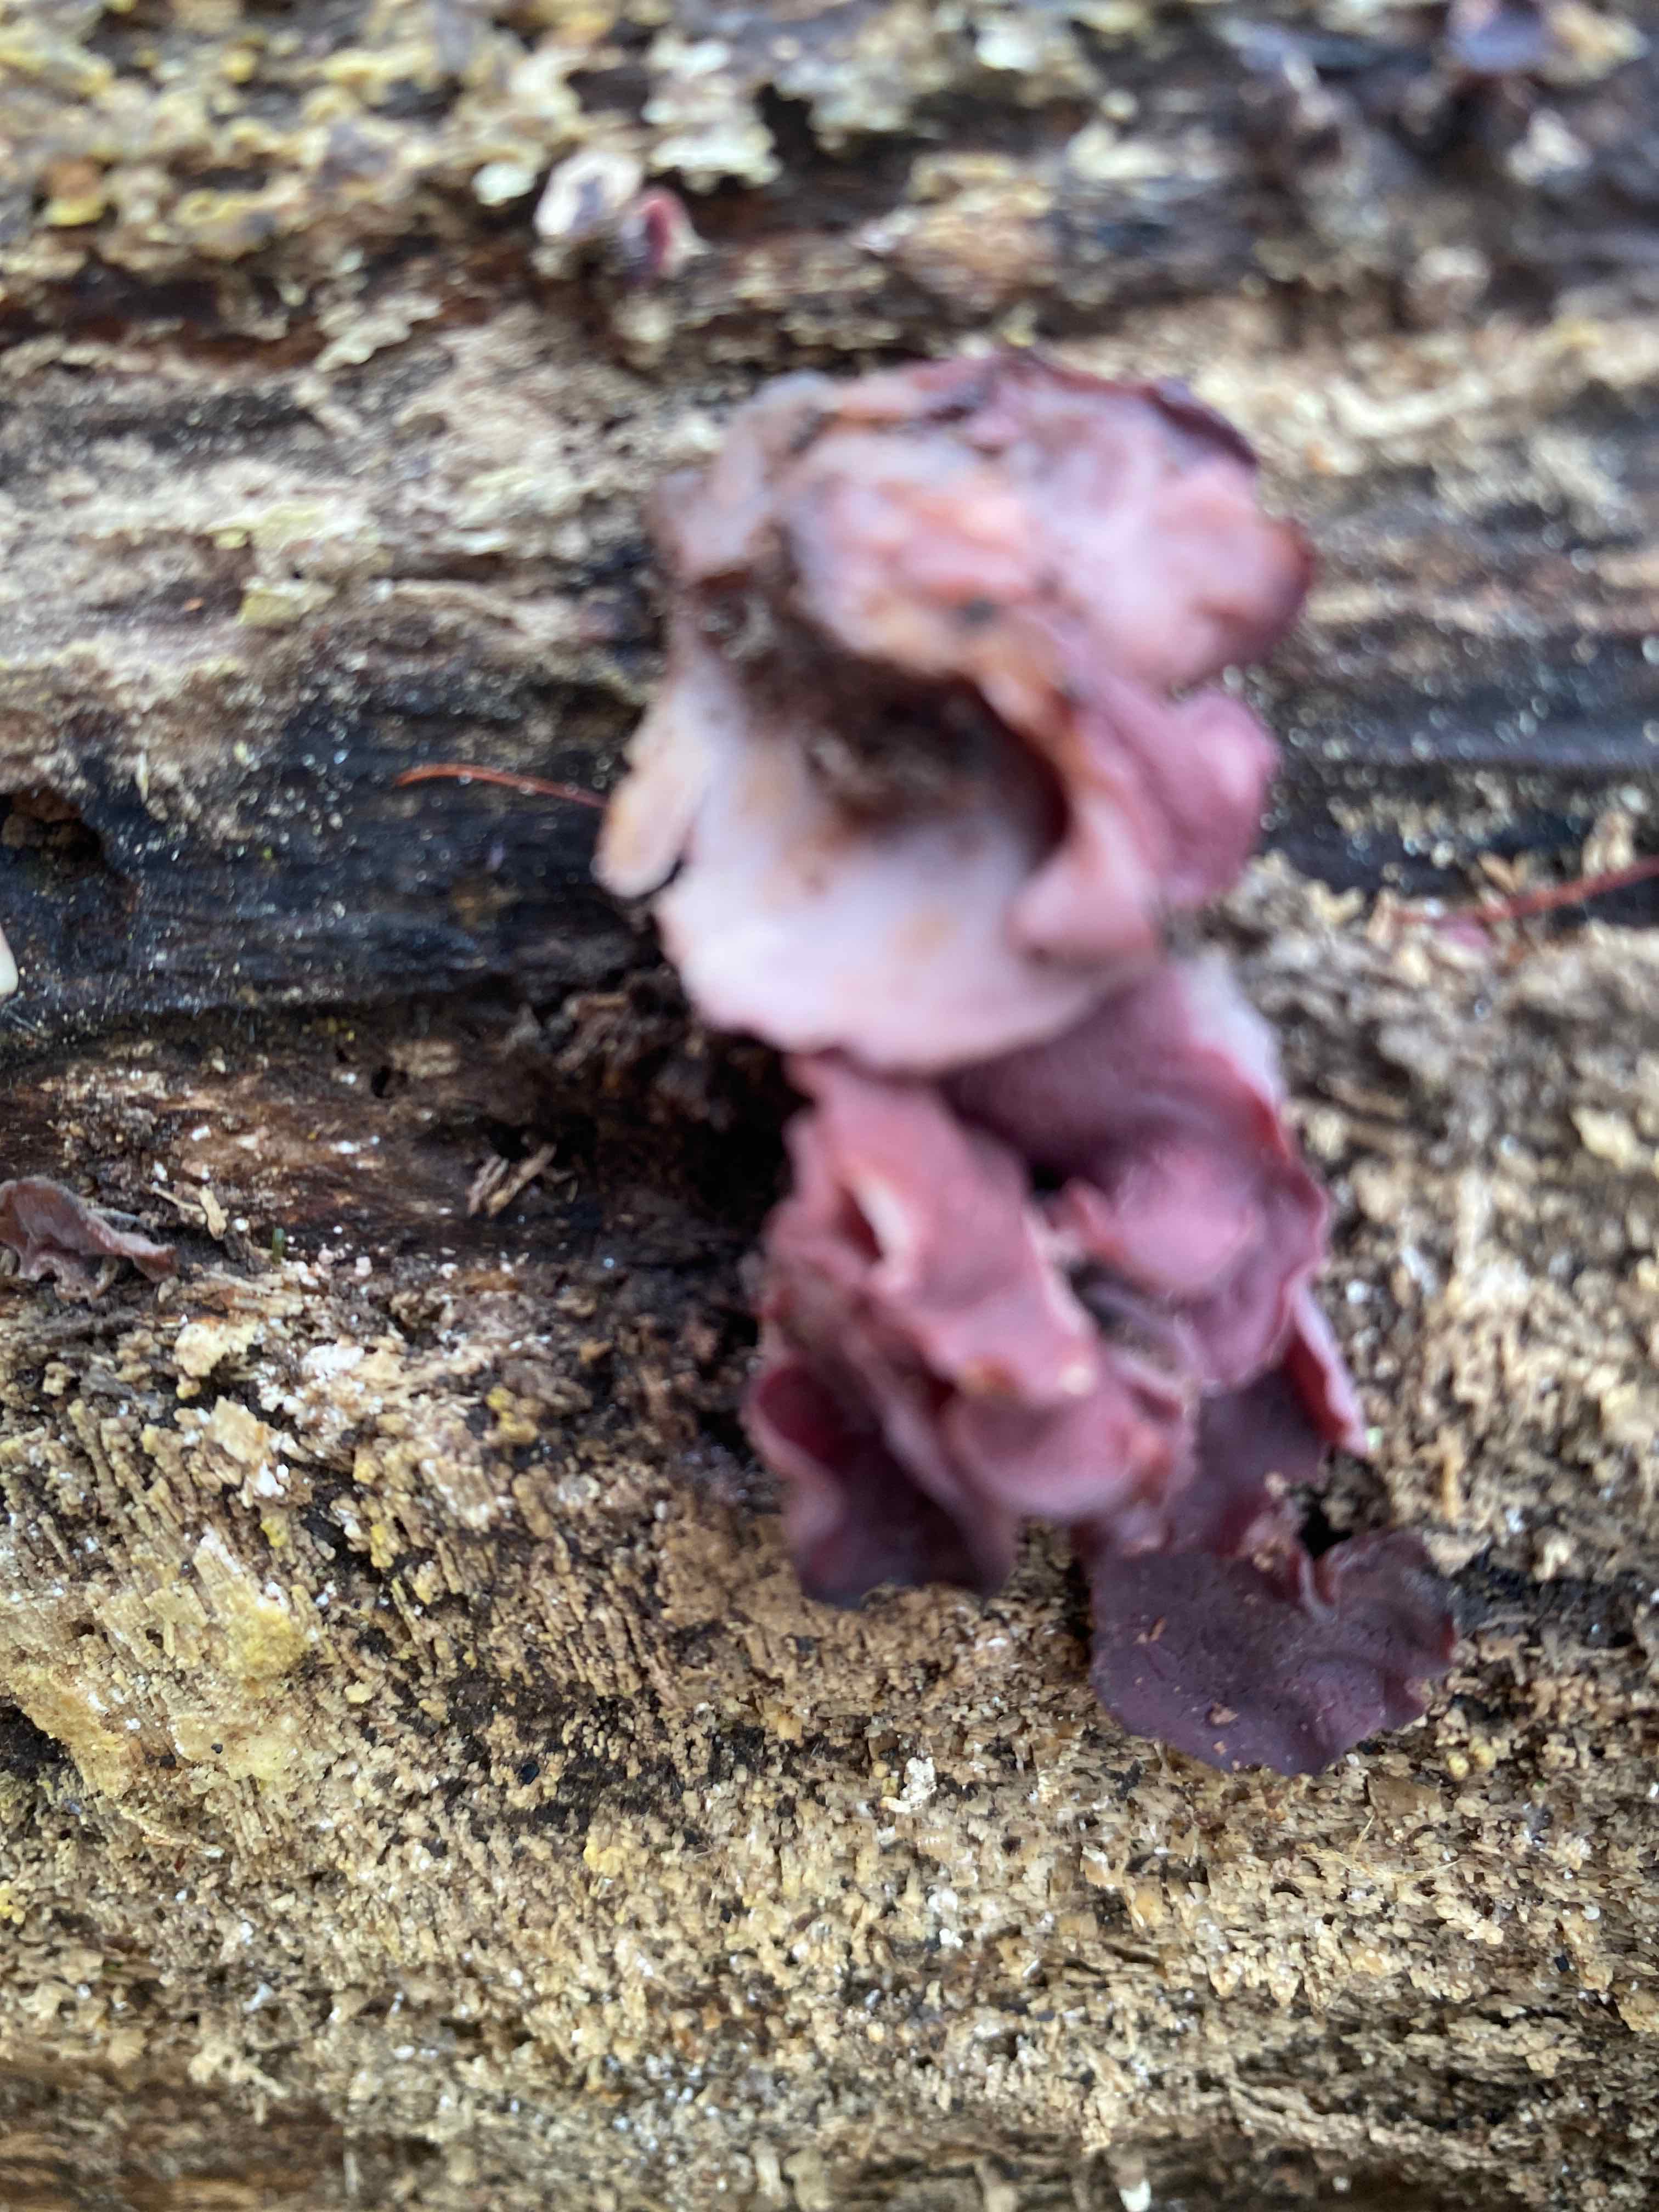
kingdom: Fungi
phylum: Ascomycota
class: Leotiomycetes
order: Helotiales
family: Gelatinodiscaceae
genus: Ascocoryne
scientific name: Ascocoryne cylichnium
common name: stor sejskive
